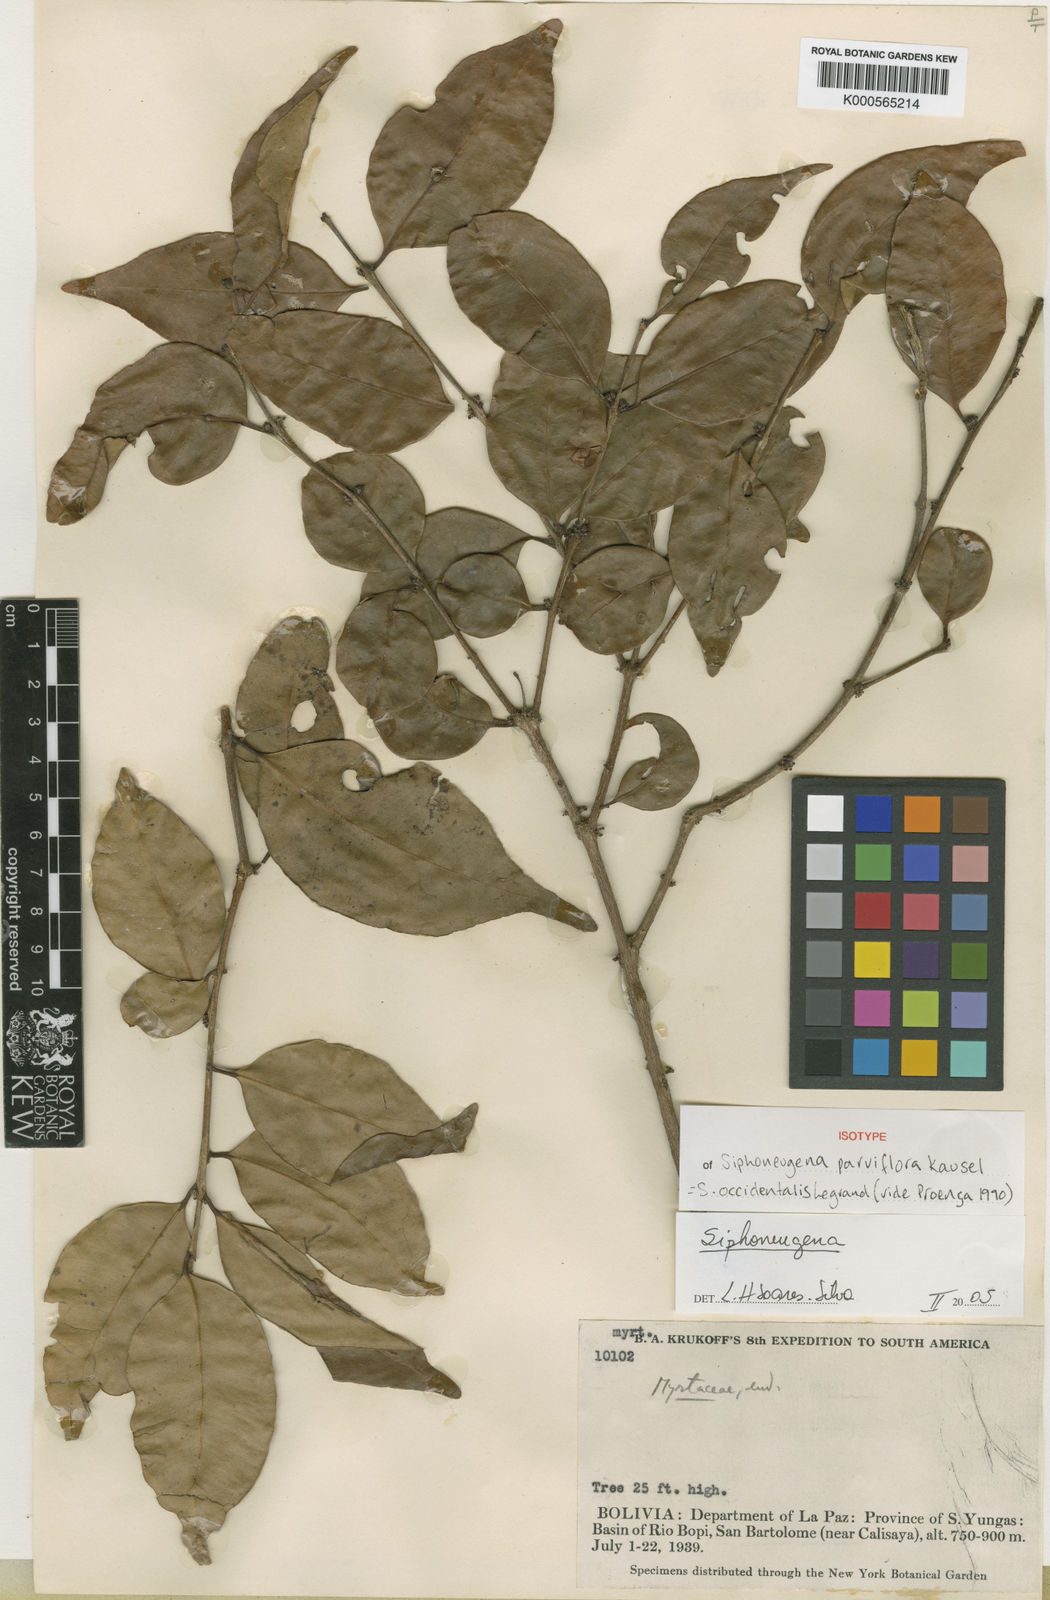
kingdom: Plantae
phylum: Tracheophyta
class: Magnoliopsida
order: Myrtales
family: Myrtaceae
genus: Siphoneugena
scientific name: Siphoneugena occidentalis
